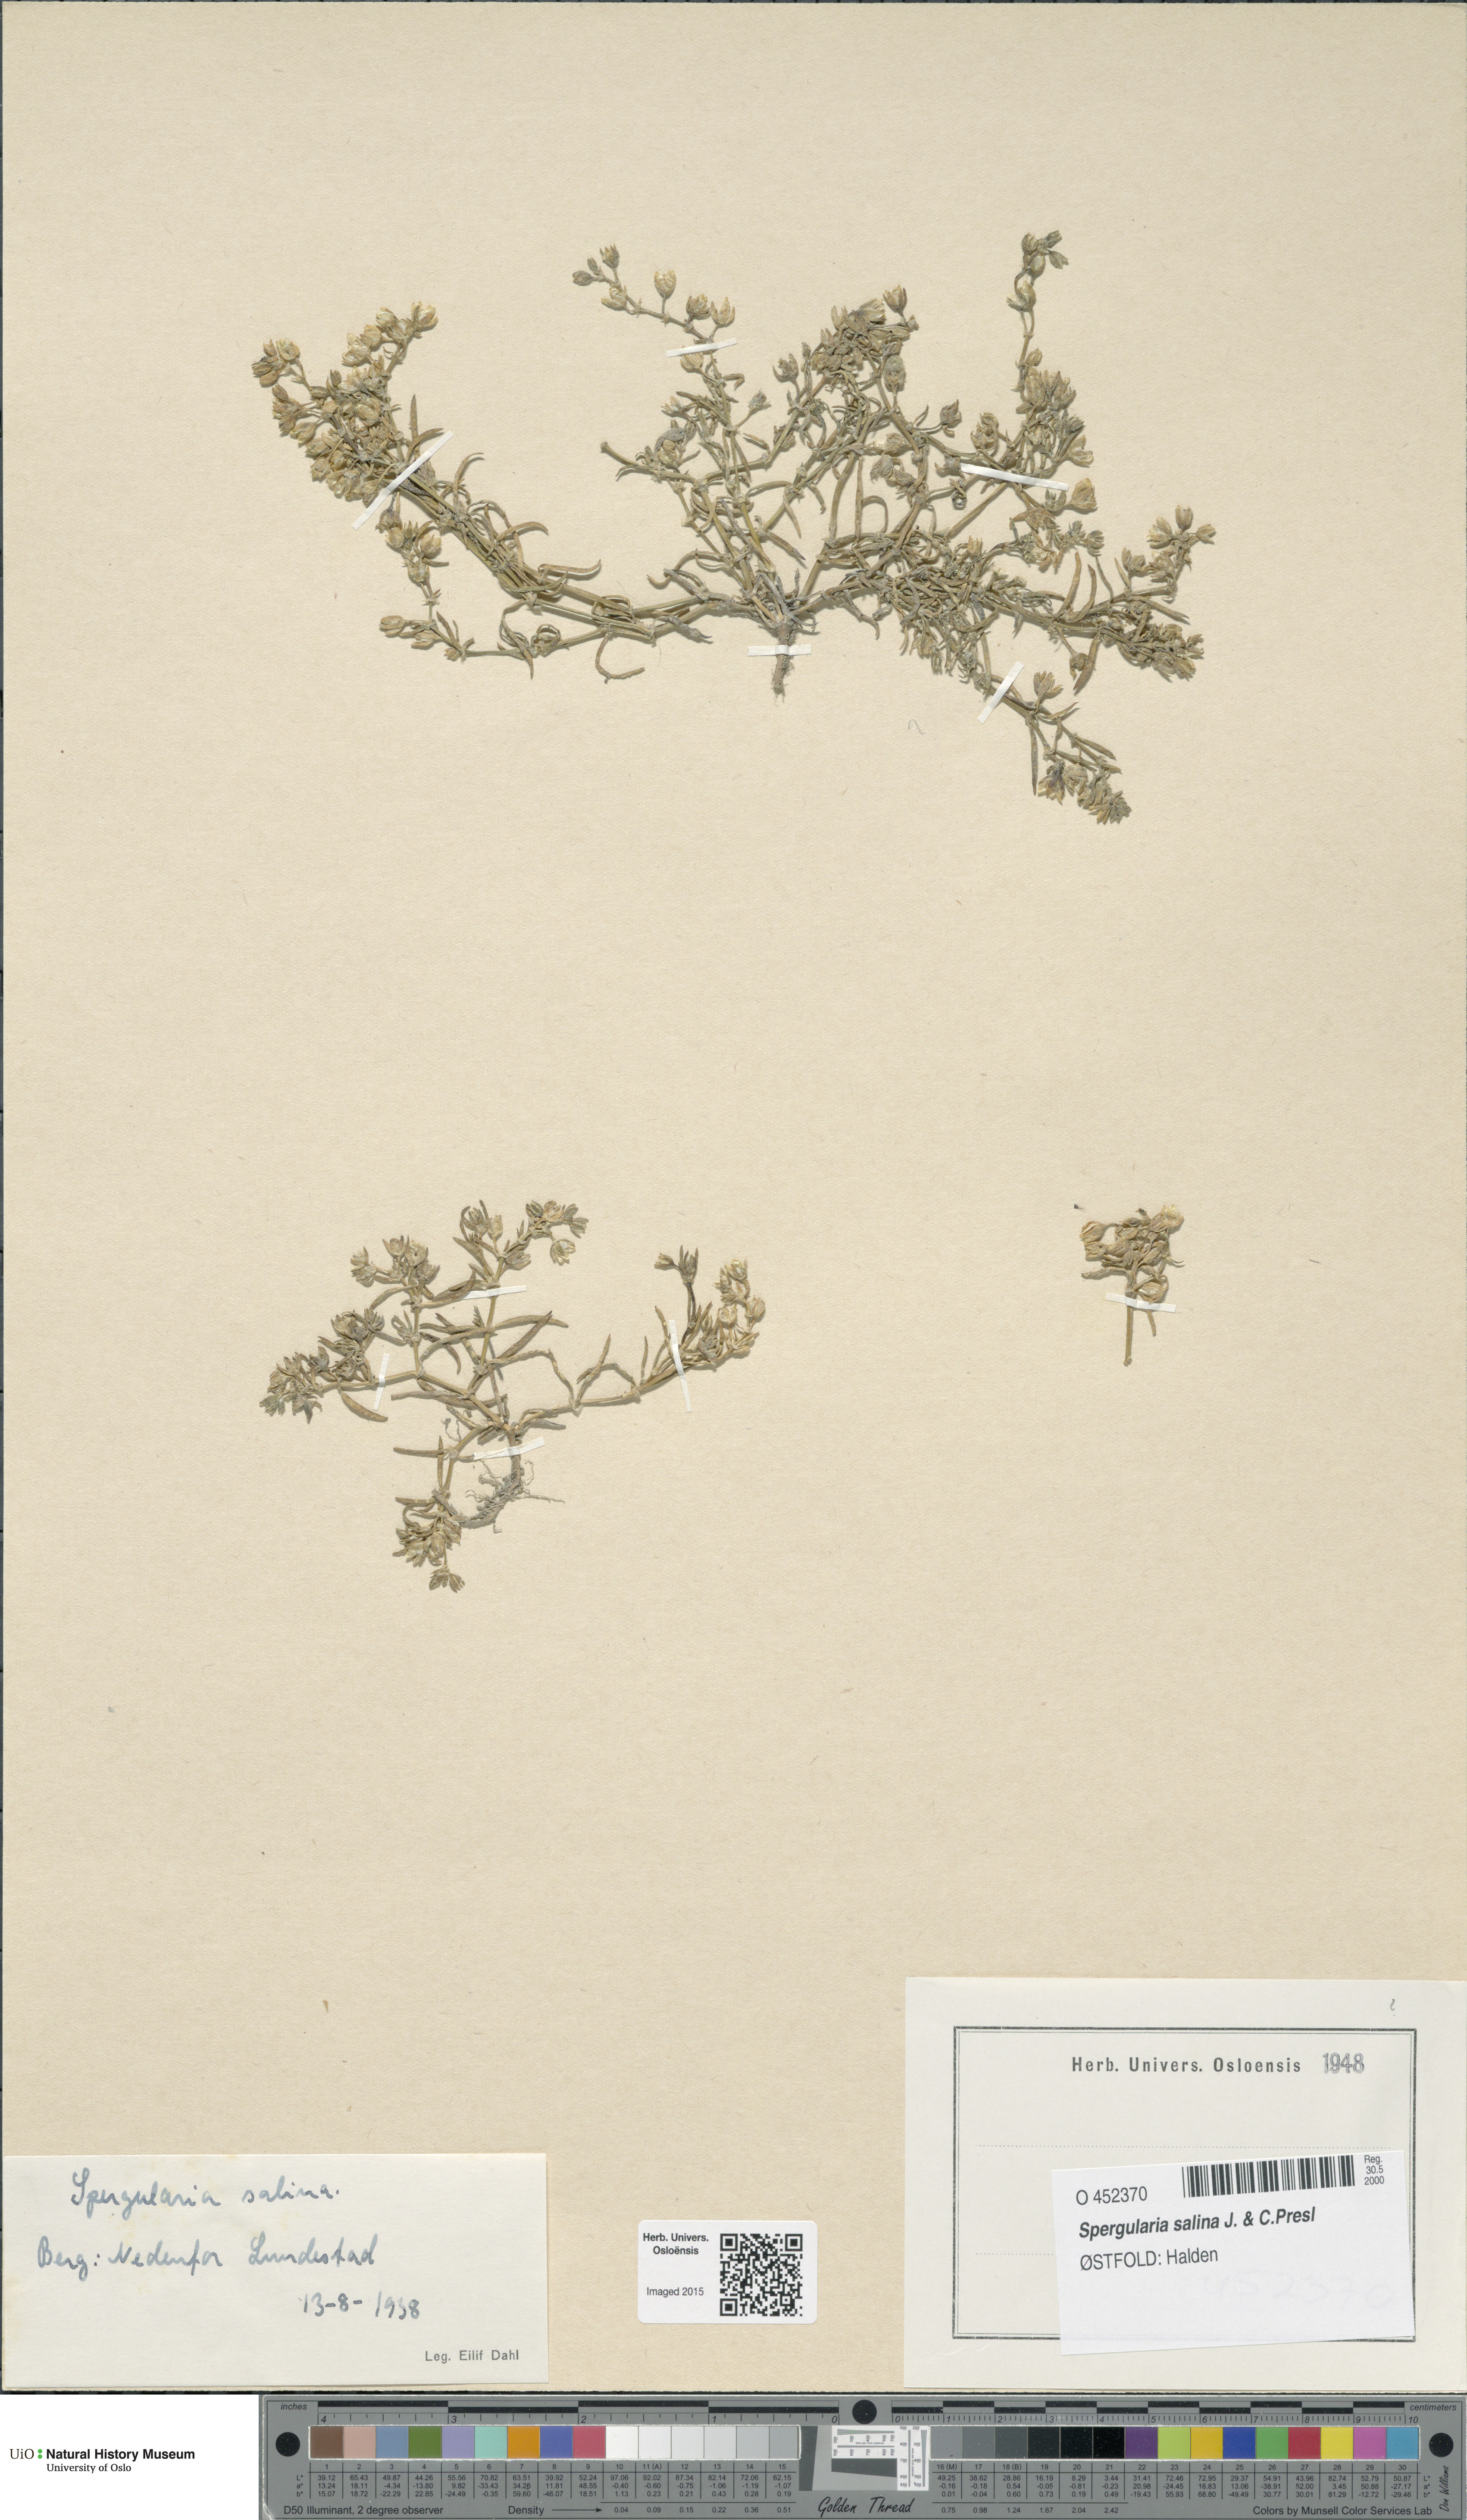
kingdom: Plantae
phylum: Tracheophyta
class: Magnoliopsida
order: Caryophyllales
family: Caryophyllaceae
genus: Spergularia
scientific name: Spergularia marina
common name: Lesser sea-spurrey
